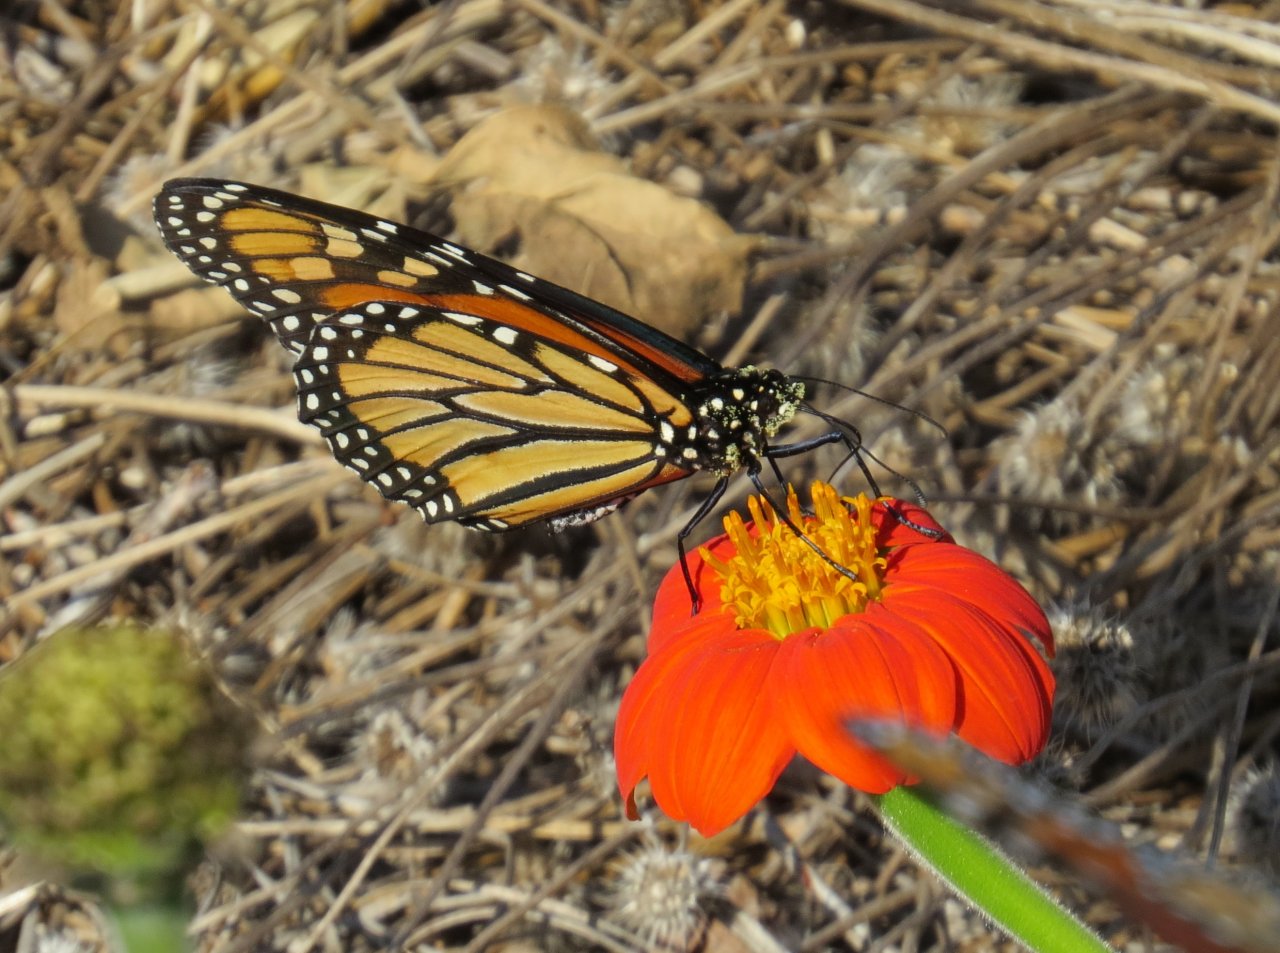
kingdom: Animalia
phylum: Arthropoda
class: Insecta
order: Lepidoptera
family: Nymphalidae
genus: Danaus
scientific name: Danaus plexippus
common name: Monarch
